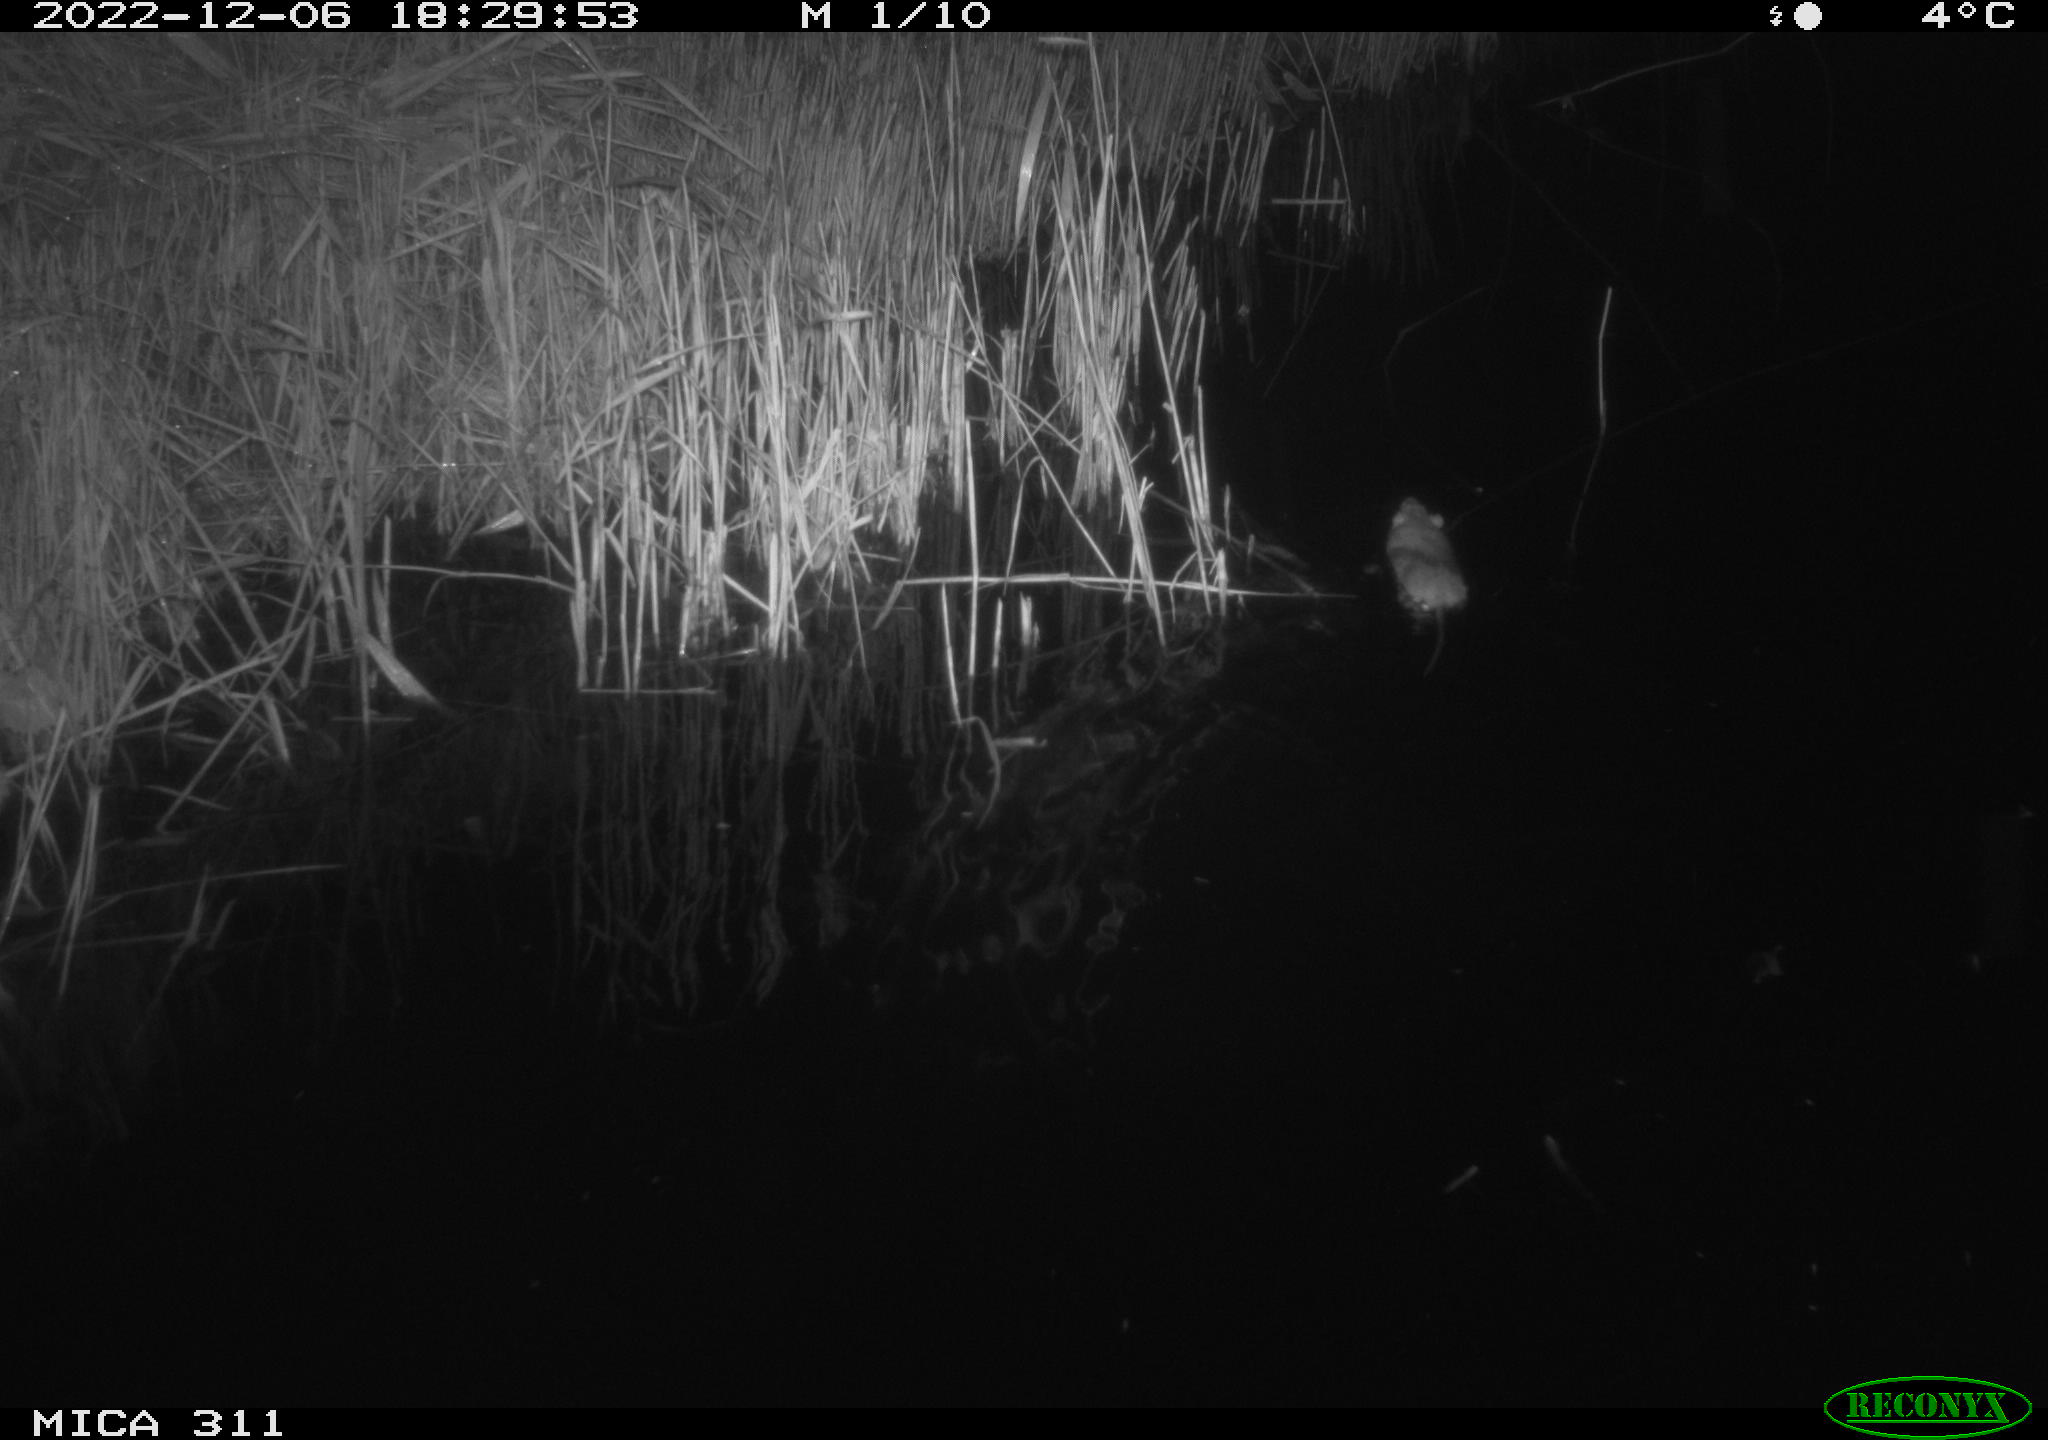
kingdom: Animalia
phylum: Chordata
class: Mammalia
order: Rodentia
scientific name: Rodentia
